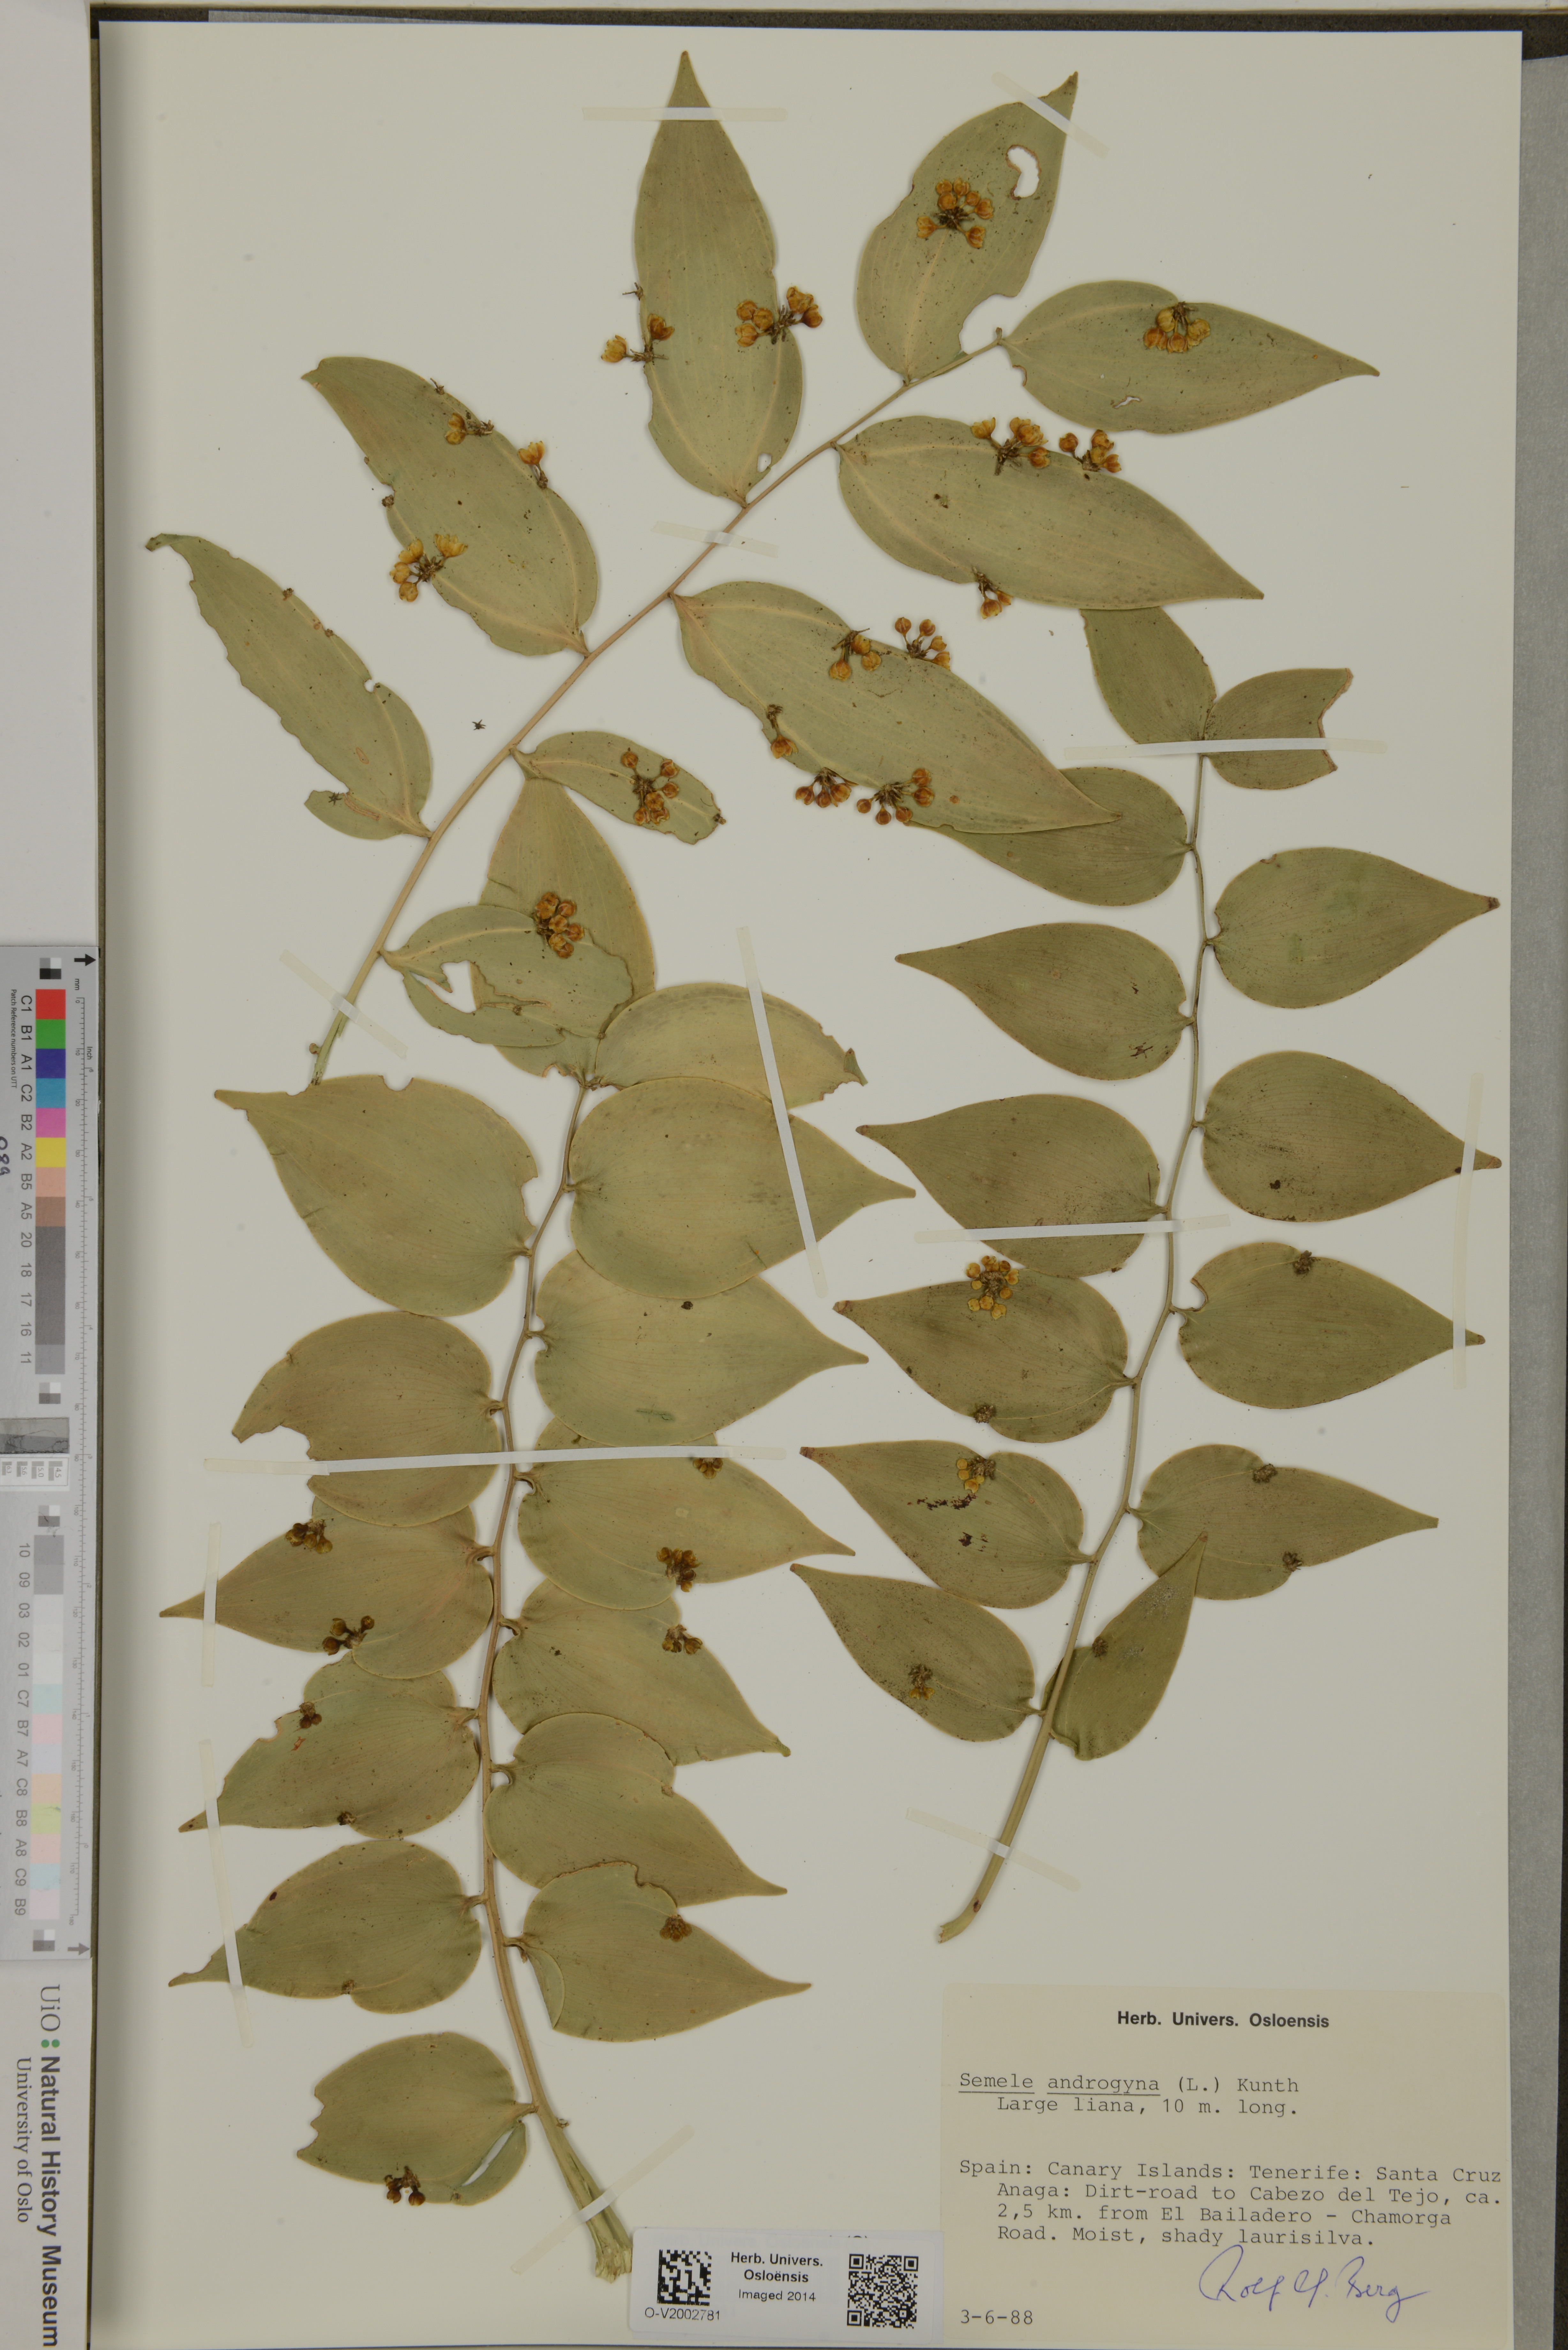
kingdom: Plantae
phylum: Tracheophyta
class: Liliopsida
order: Asparagales
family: Asparagaceae
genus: Semele
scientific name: Semele androgyna
